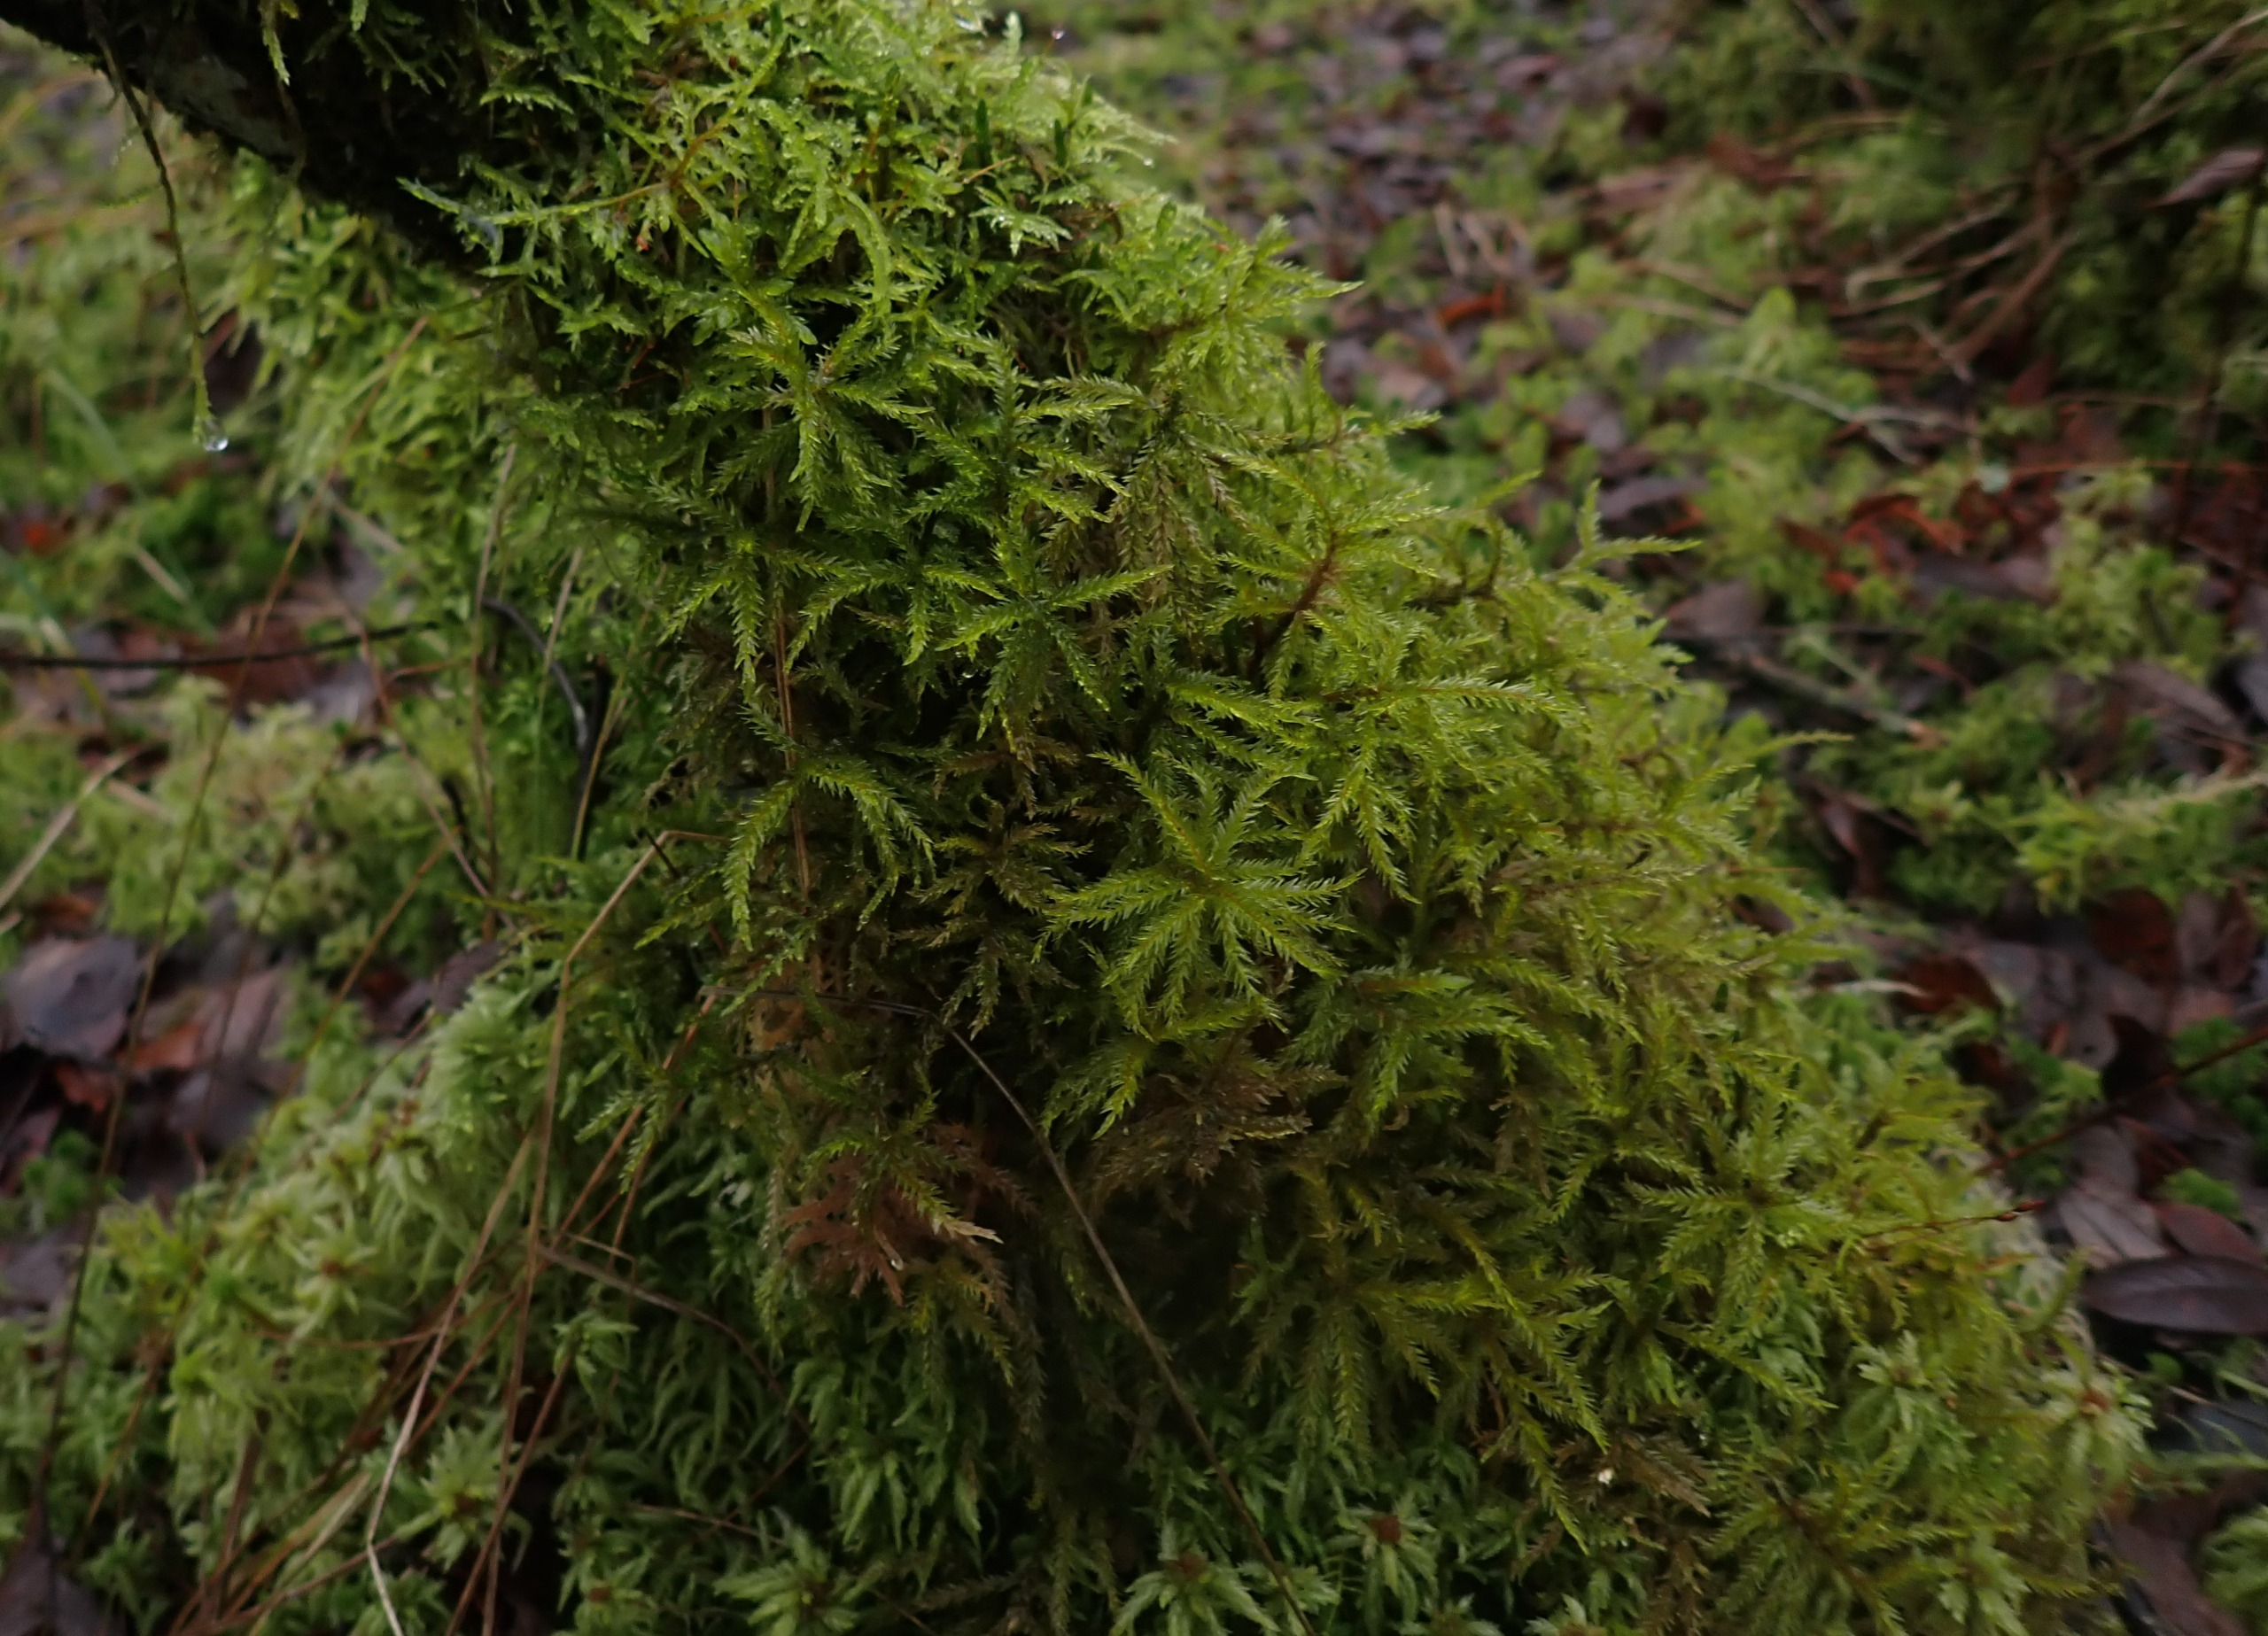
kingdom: Plantae
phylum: Bryophyta
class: Bryopsida
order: Hypnales
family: Climaciaceae
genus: Climacium
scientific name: Climacium dendroides
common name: Stor engkost
